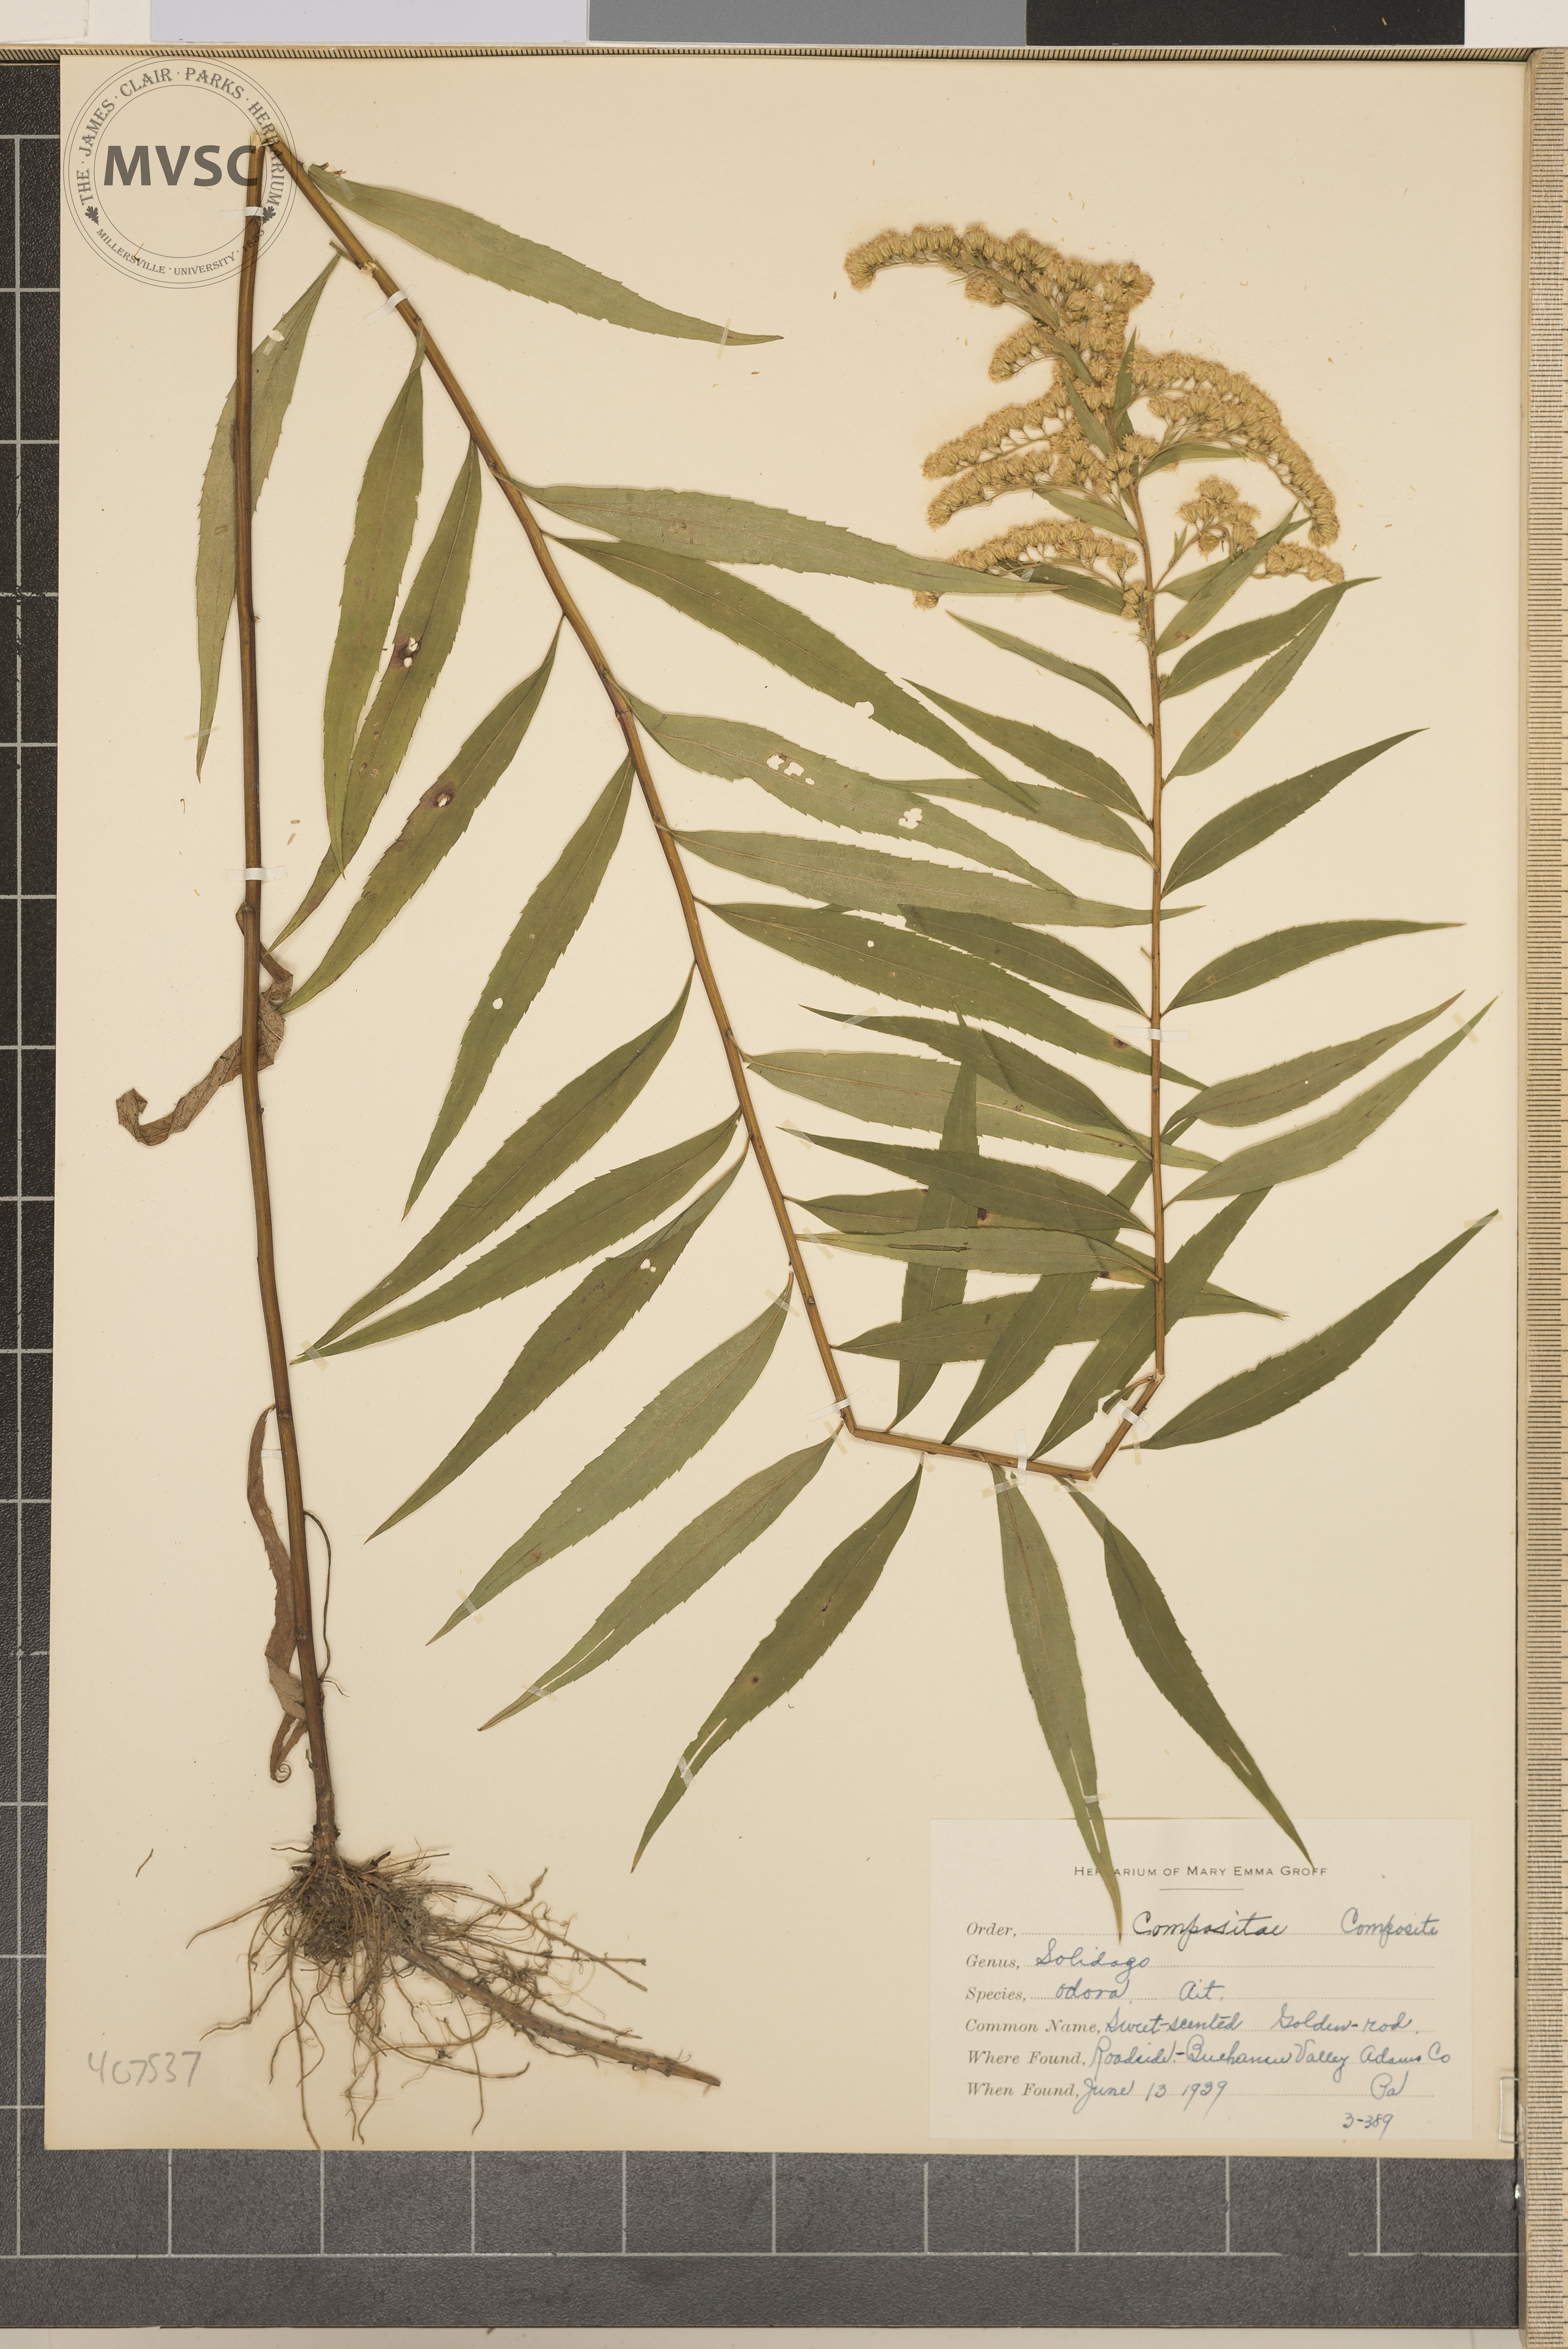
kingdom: Plantae
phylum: Tracheophyta
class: Magnoliopsida
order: Asterales
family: Asteraceae
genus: Solidago
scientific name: Solidago odora
